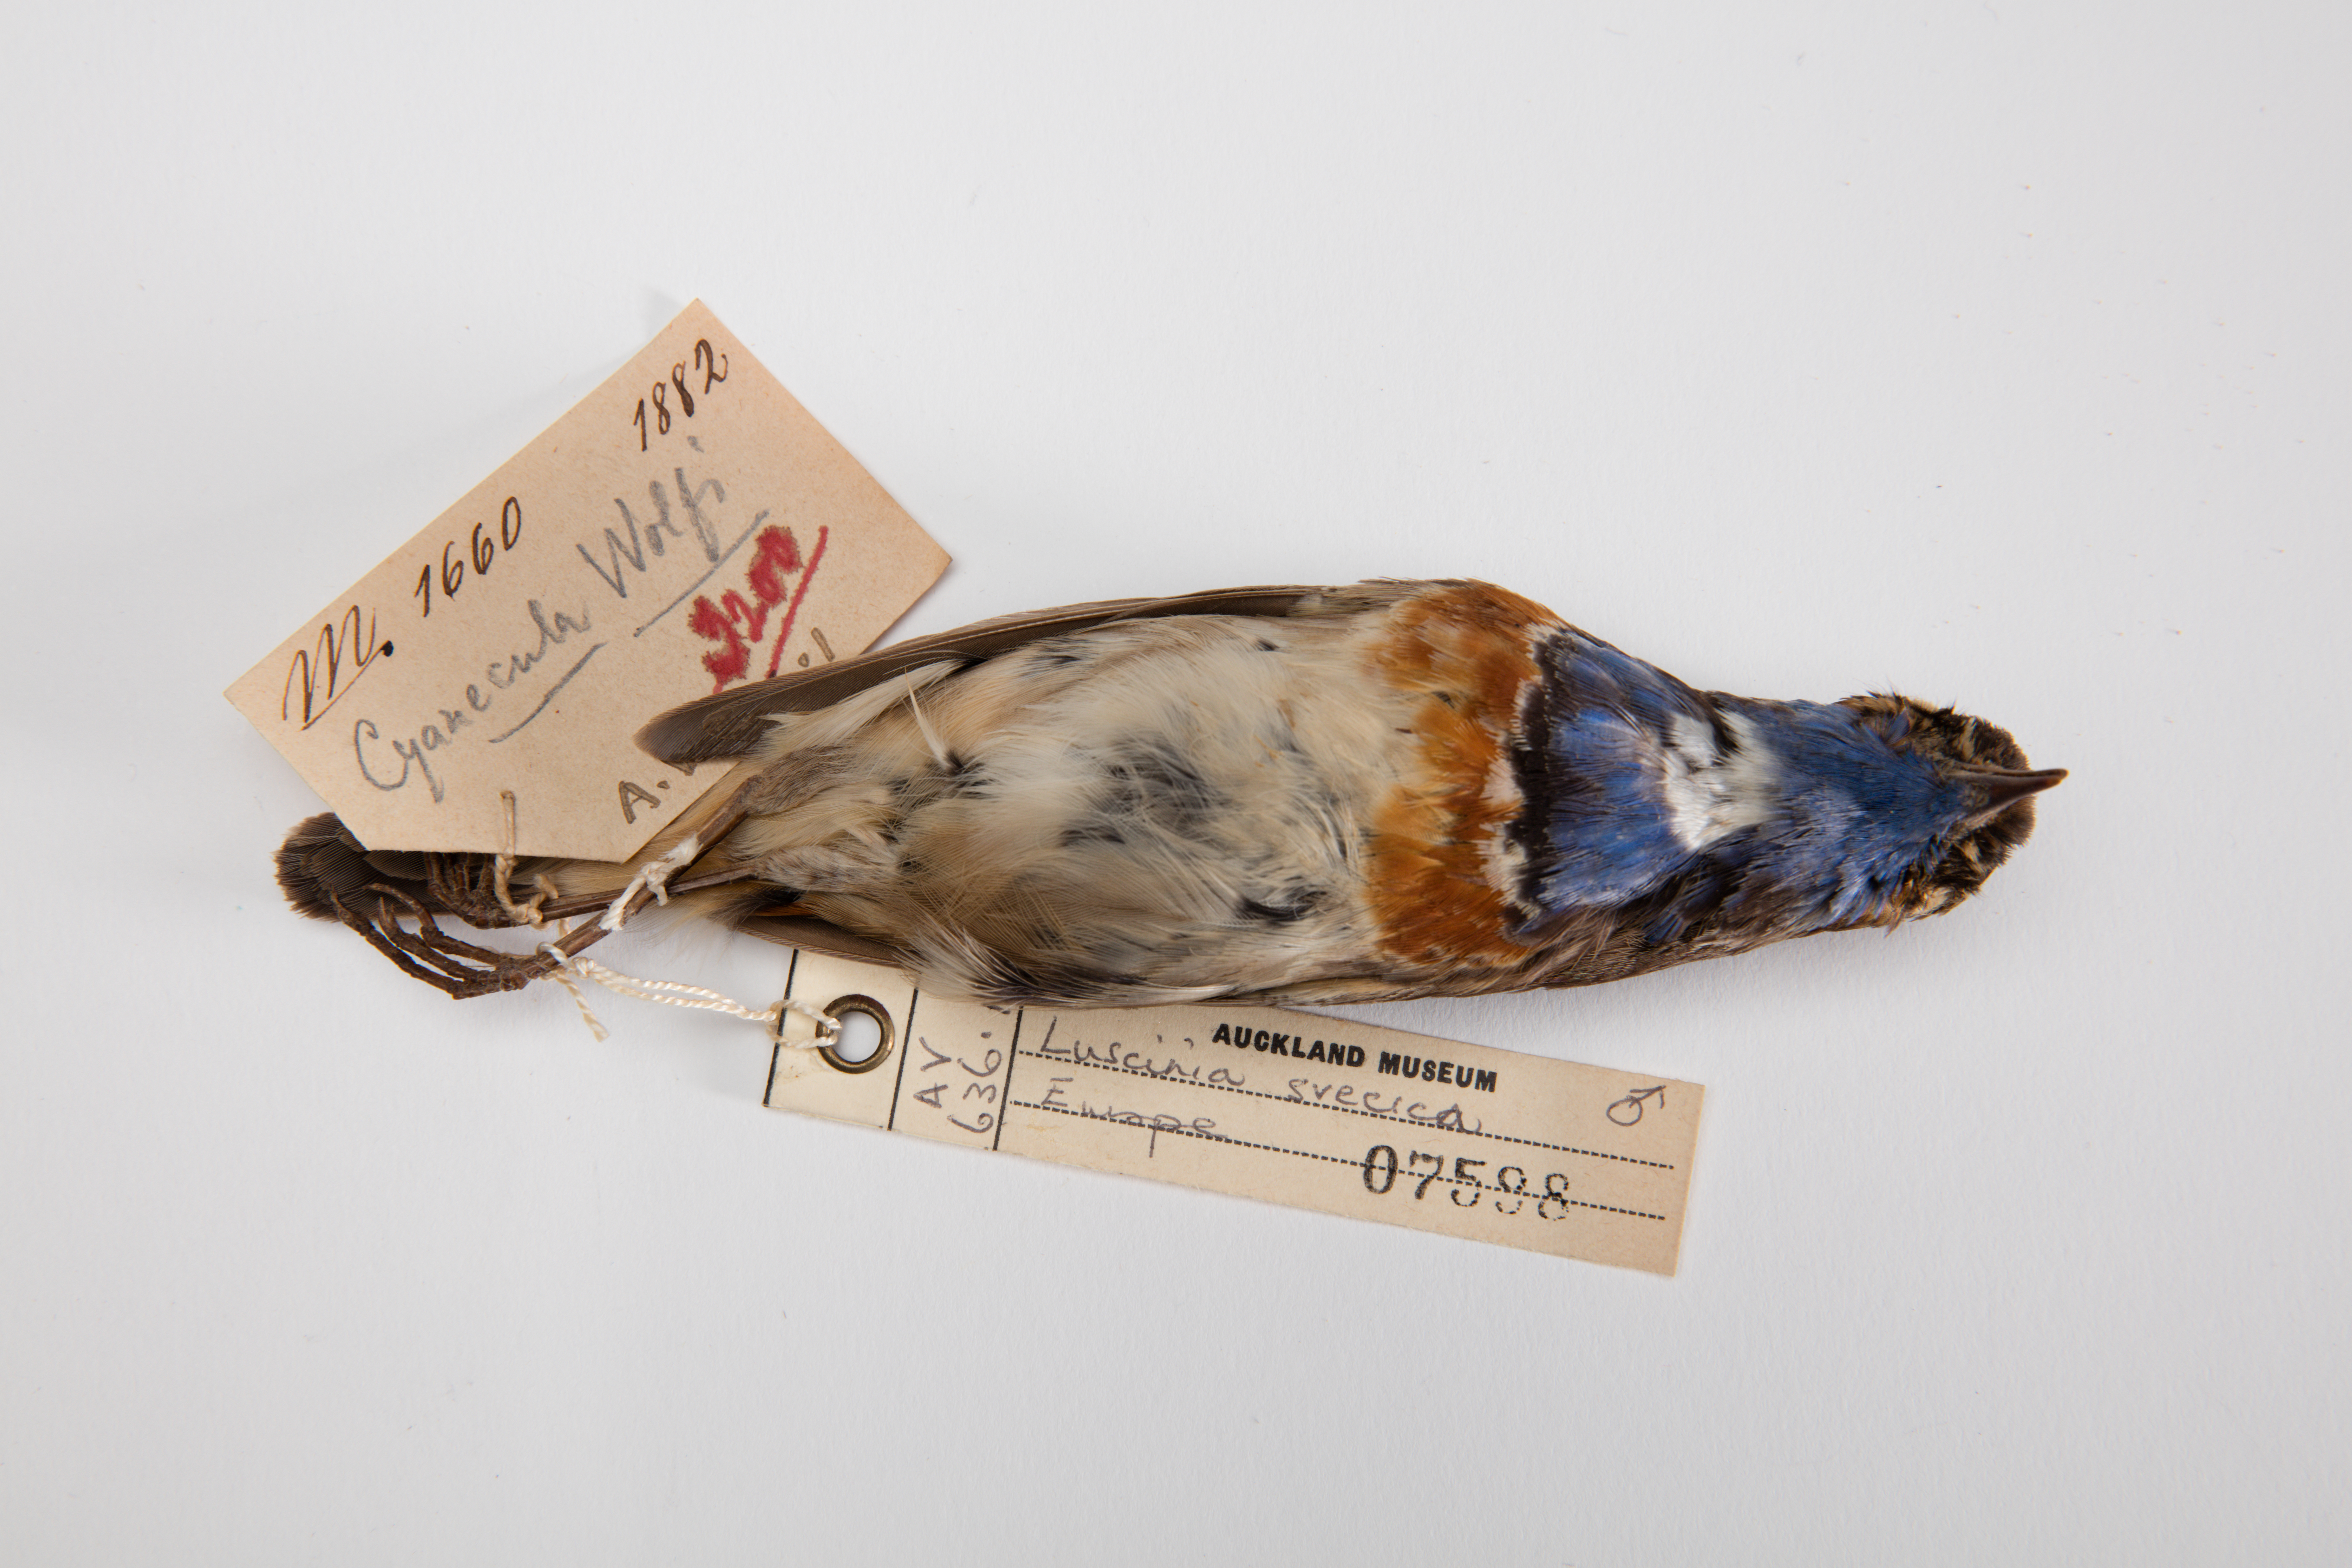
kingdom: Animalia
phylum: Chordata
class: Aves
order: Passeriformes
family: Muscicapidae
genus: Luscinia
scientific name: Luscinia svecica
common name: Bluethroat
